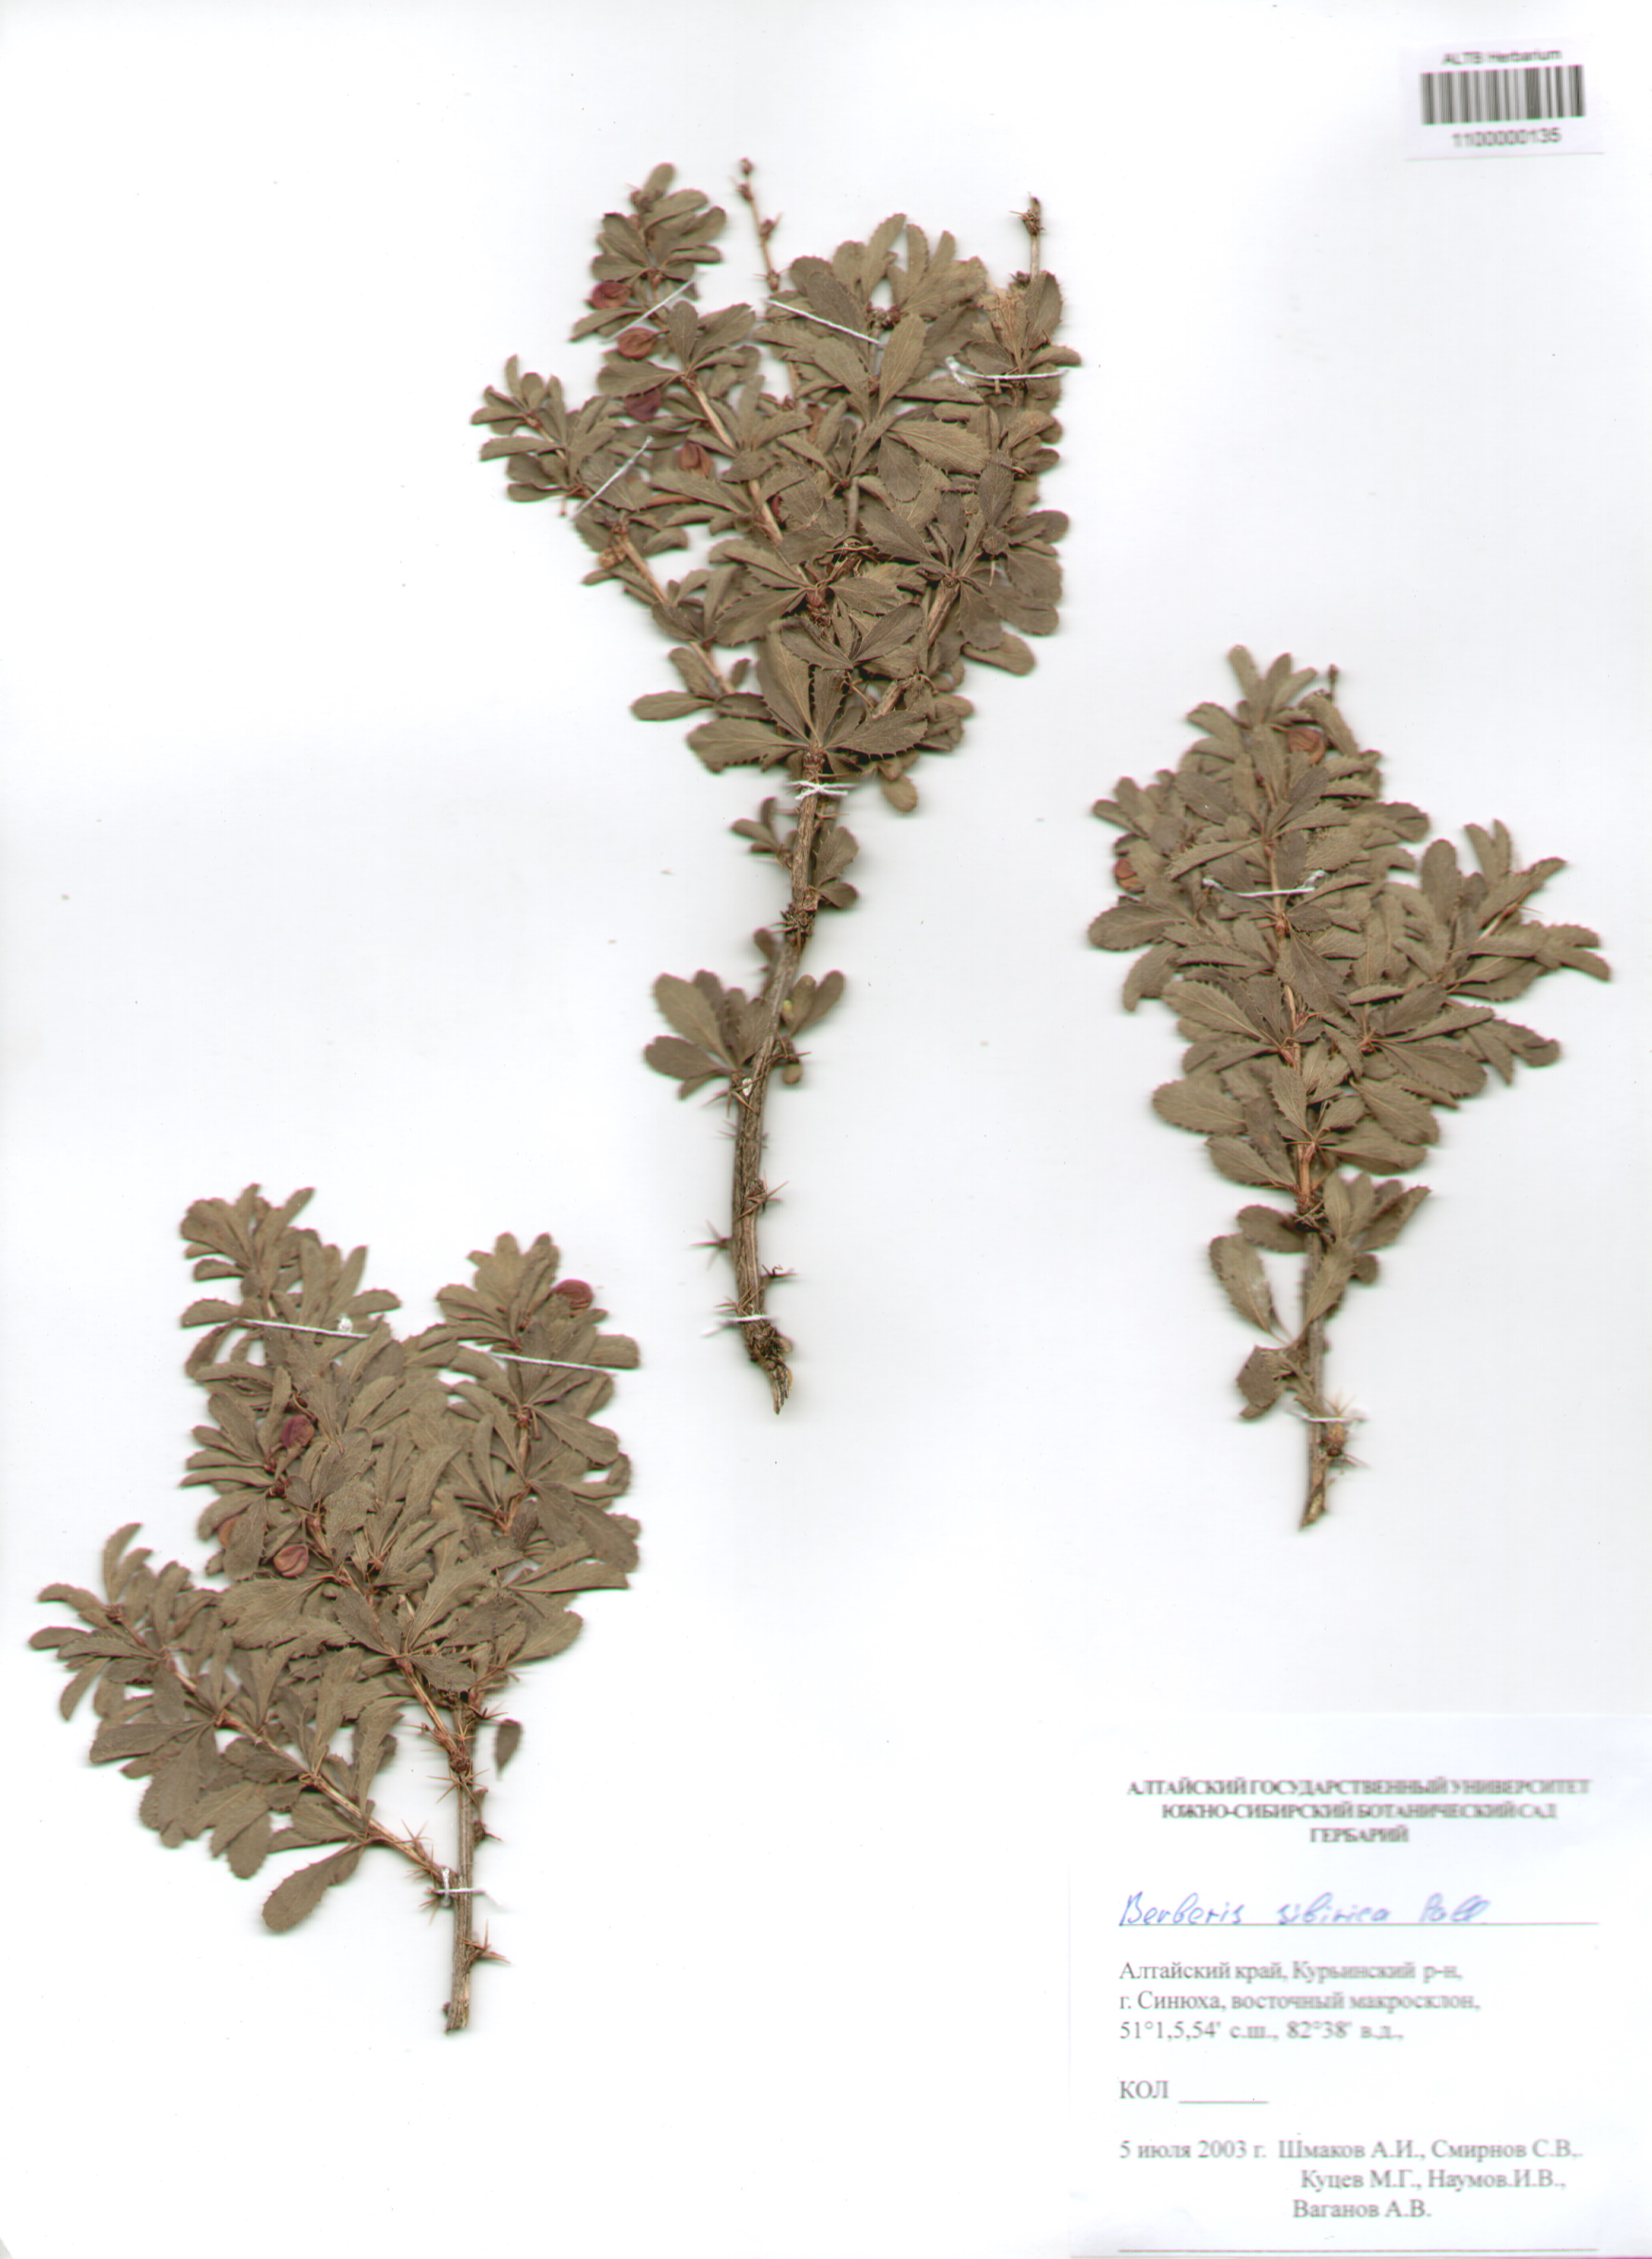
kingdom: Plantae
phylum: Tracheophyta
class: Magnoliopsida
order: Ranunculales
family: Berberidaceae
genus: Berberis
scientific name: Berberis sibirica
